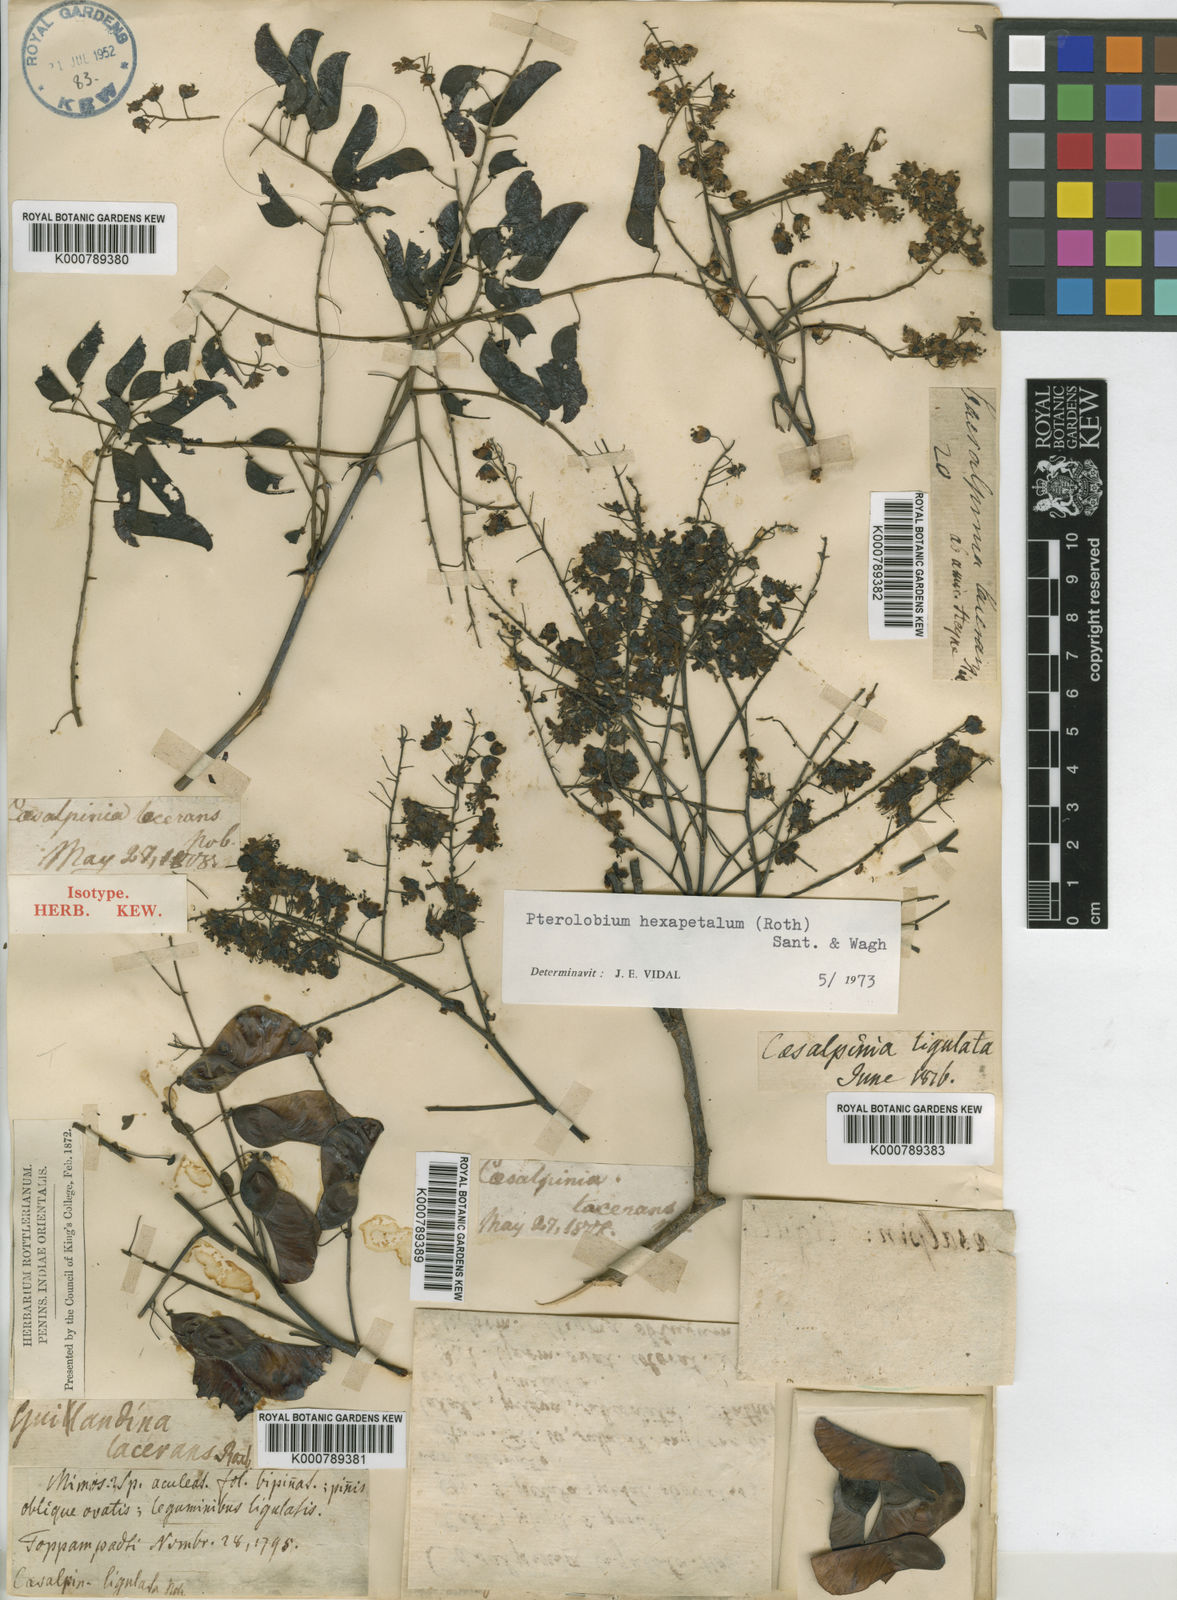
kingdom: Plantae
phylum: Tracheophyta
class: Magnoliopsida
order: Fabales
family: Fabaceae
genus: Pterolobium
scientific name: Pterolobium hexapetalum
